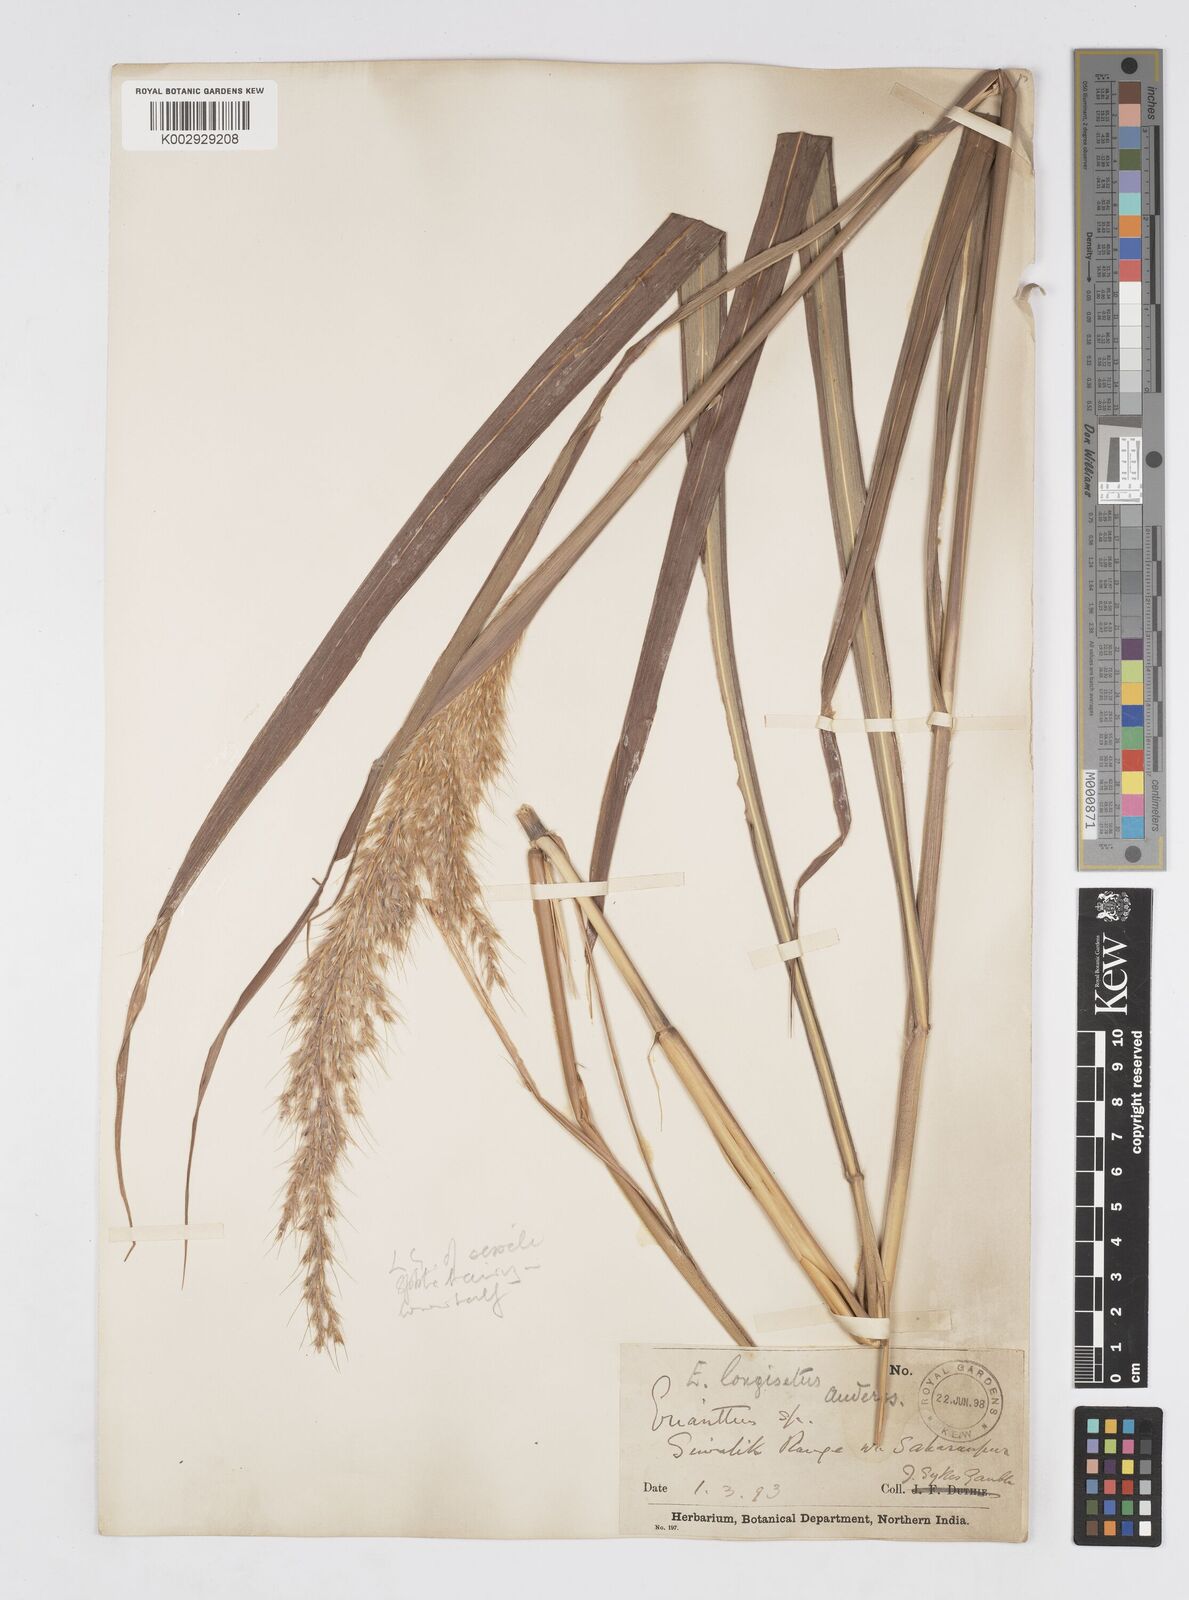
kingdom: Plantae
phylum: Tracheophyta
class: Liliopsida
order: Poales
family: Poaceae
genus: Melinis
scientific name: Melinis longiseta
